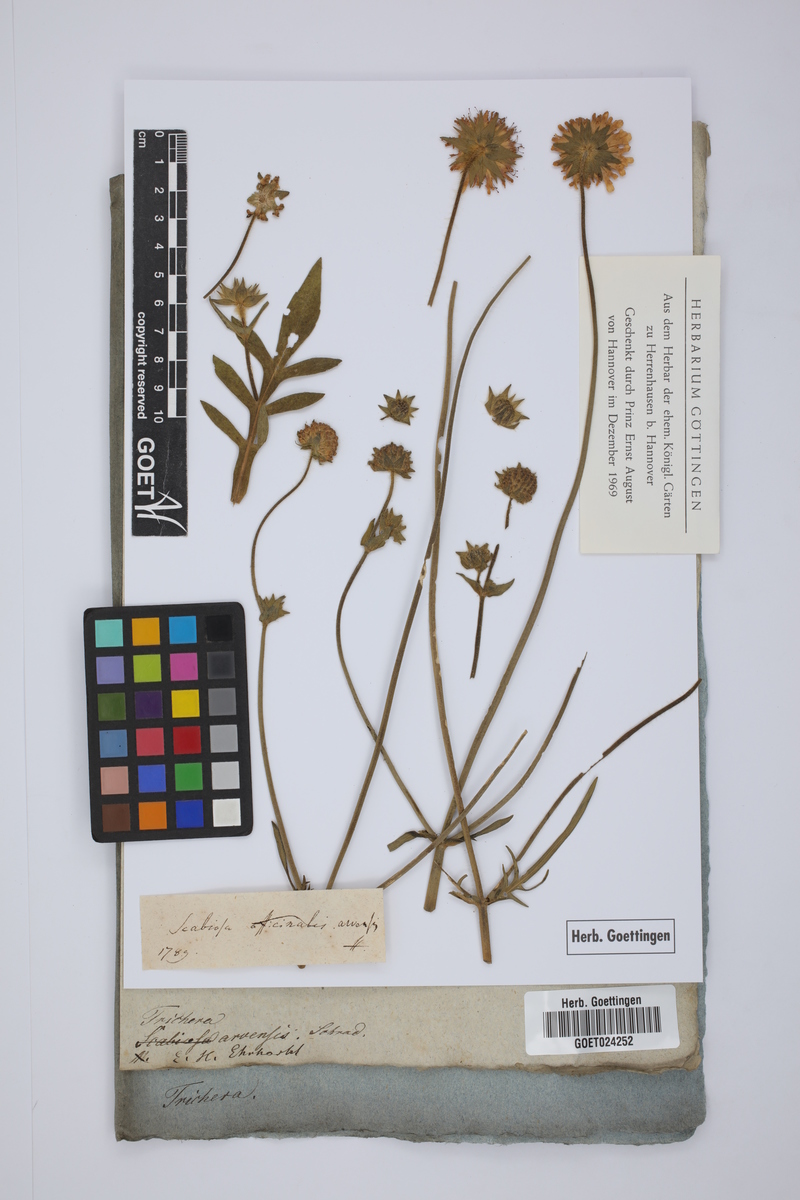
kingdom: Plantae
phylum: Tracheophyta
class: Magnoliopsida
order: Dipsacales
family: Caprifoliaceae
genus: Knautia
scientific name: Knautia arvensis
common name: Field scabiosa
